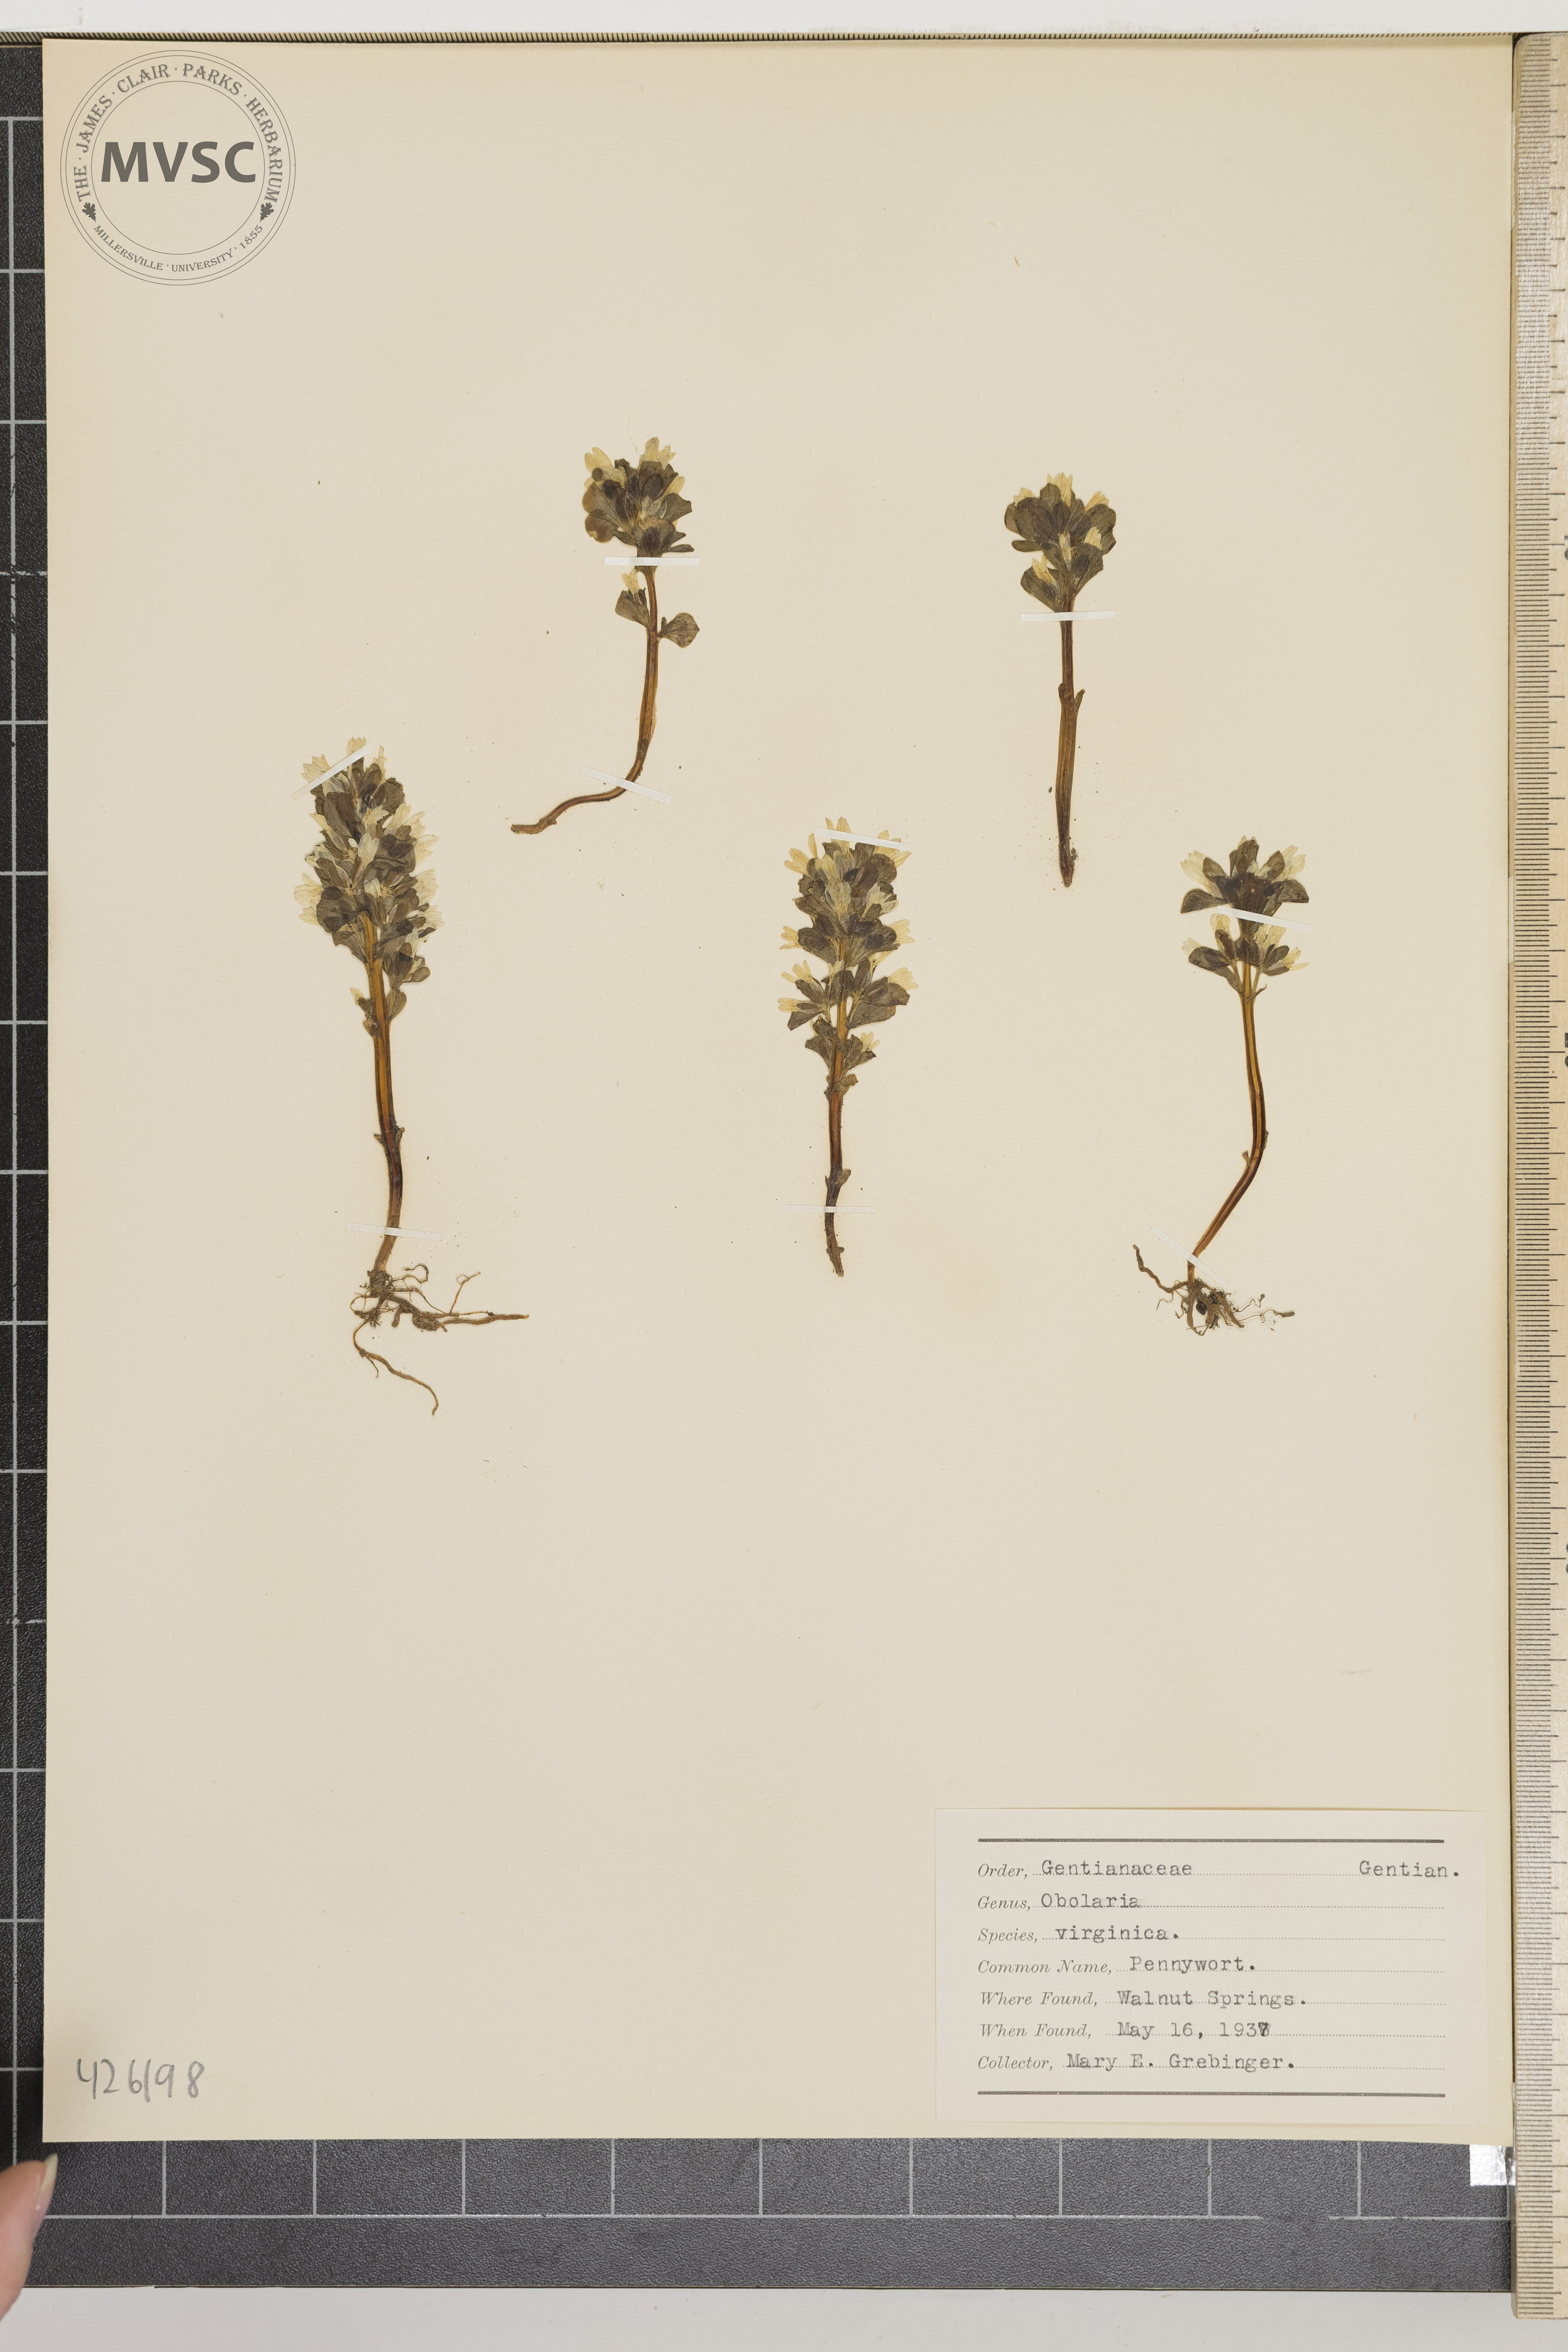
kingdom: Plantae
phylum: Tracheophyta
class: Magnoliopsida
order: Gentianales
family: Gentianaceae
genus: Obolaria
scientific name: Obolaria virginica
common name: Pennywort
